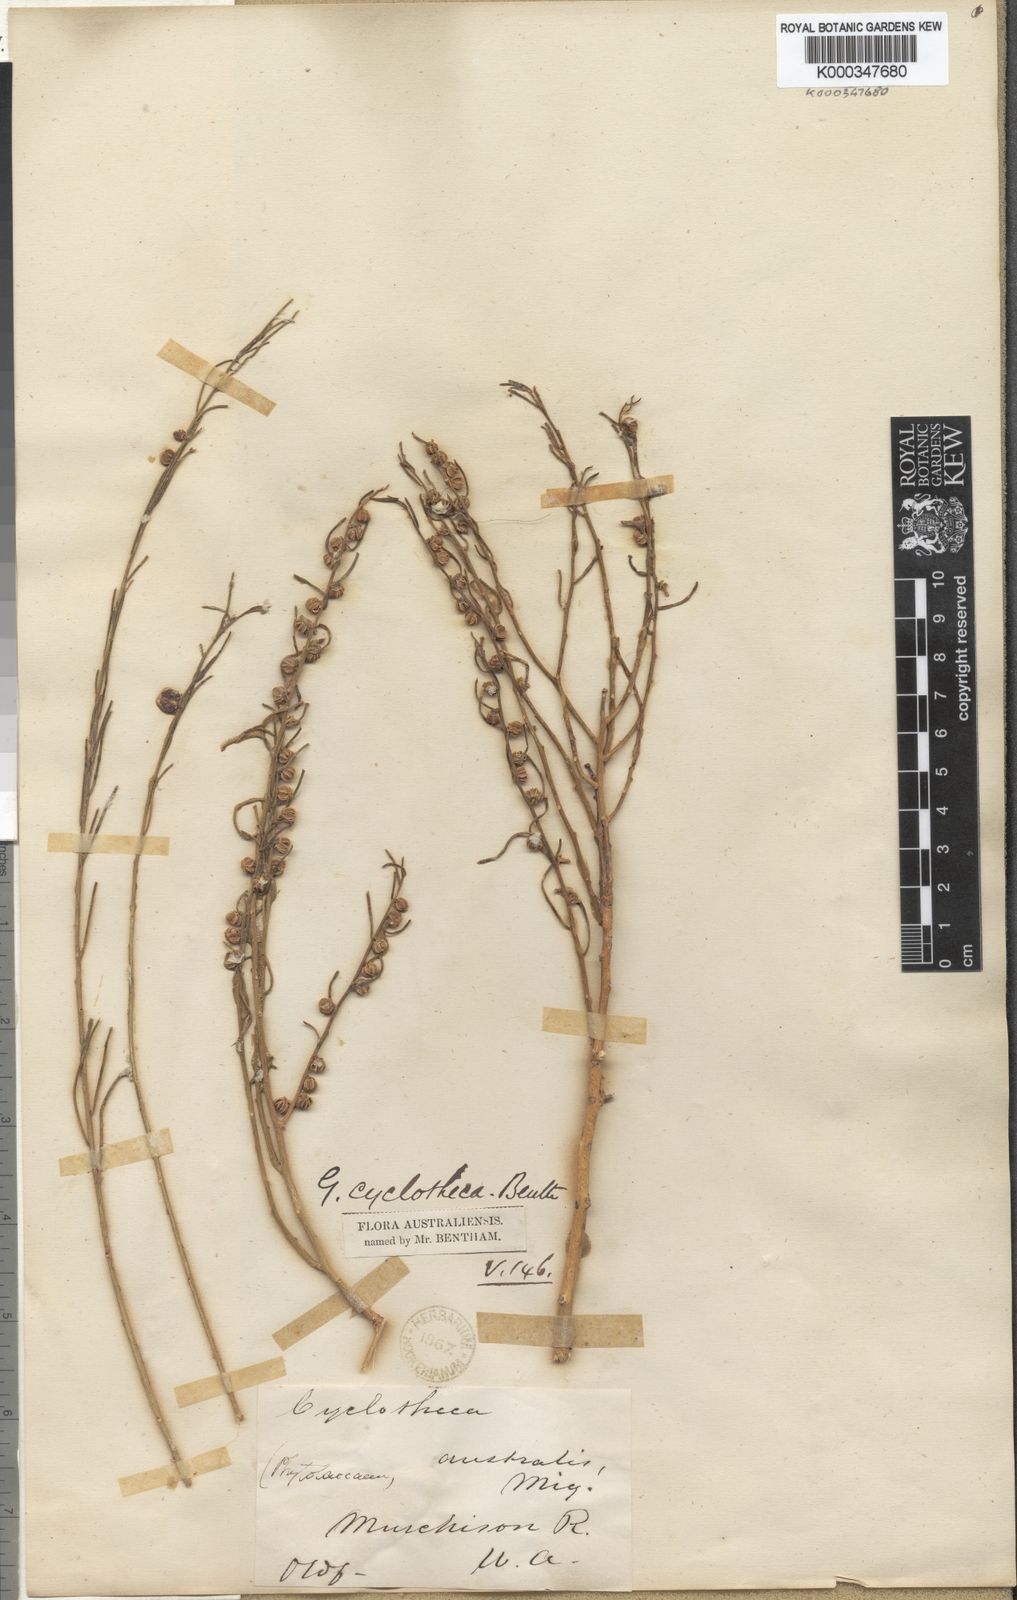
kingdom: Plantae
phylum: Tracheophyta
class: Polypodiopsida
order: Marattiales
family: Marattiaceae
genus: Cyclotheca
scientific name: Cyclotheca
